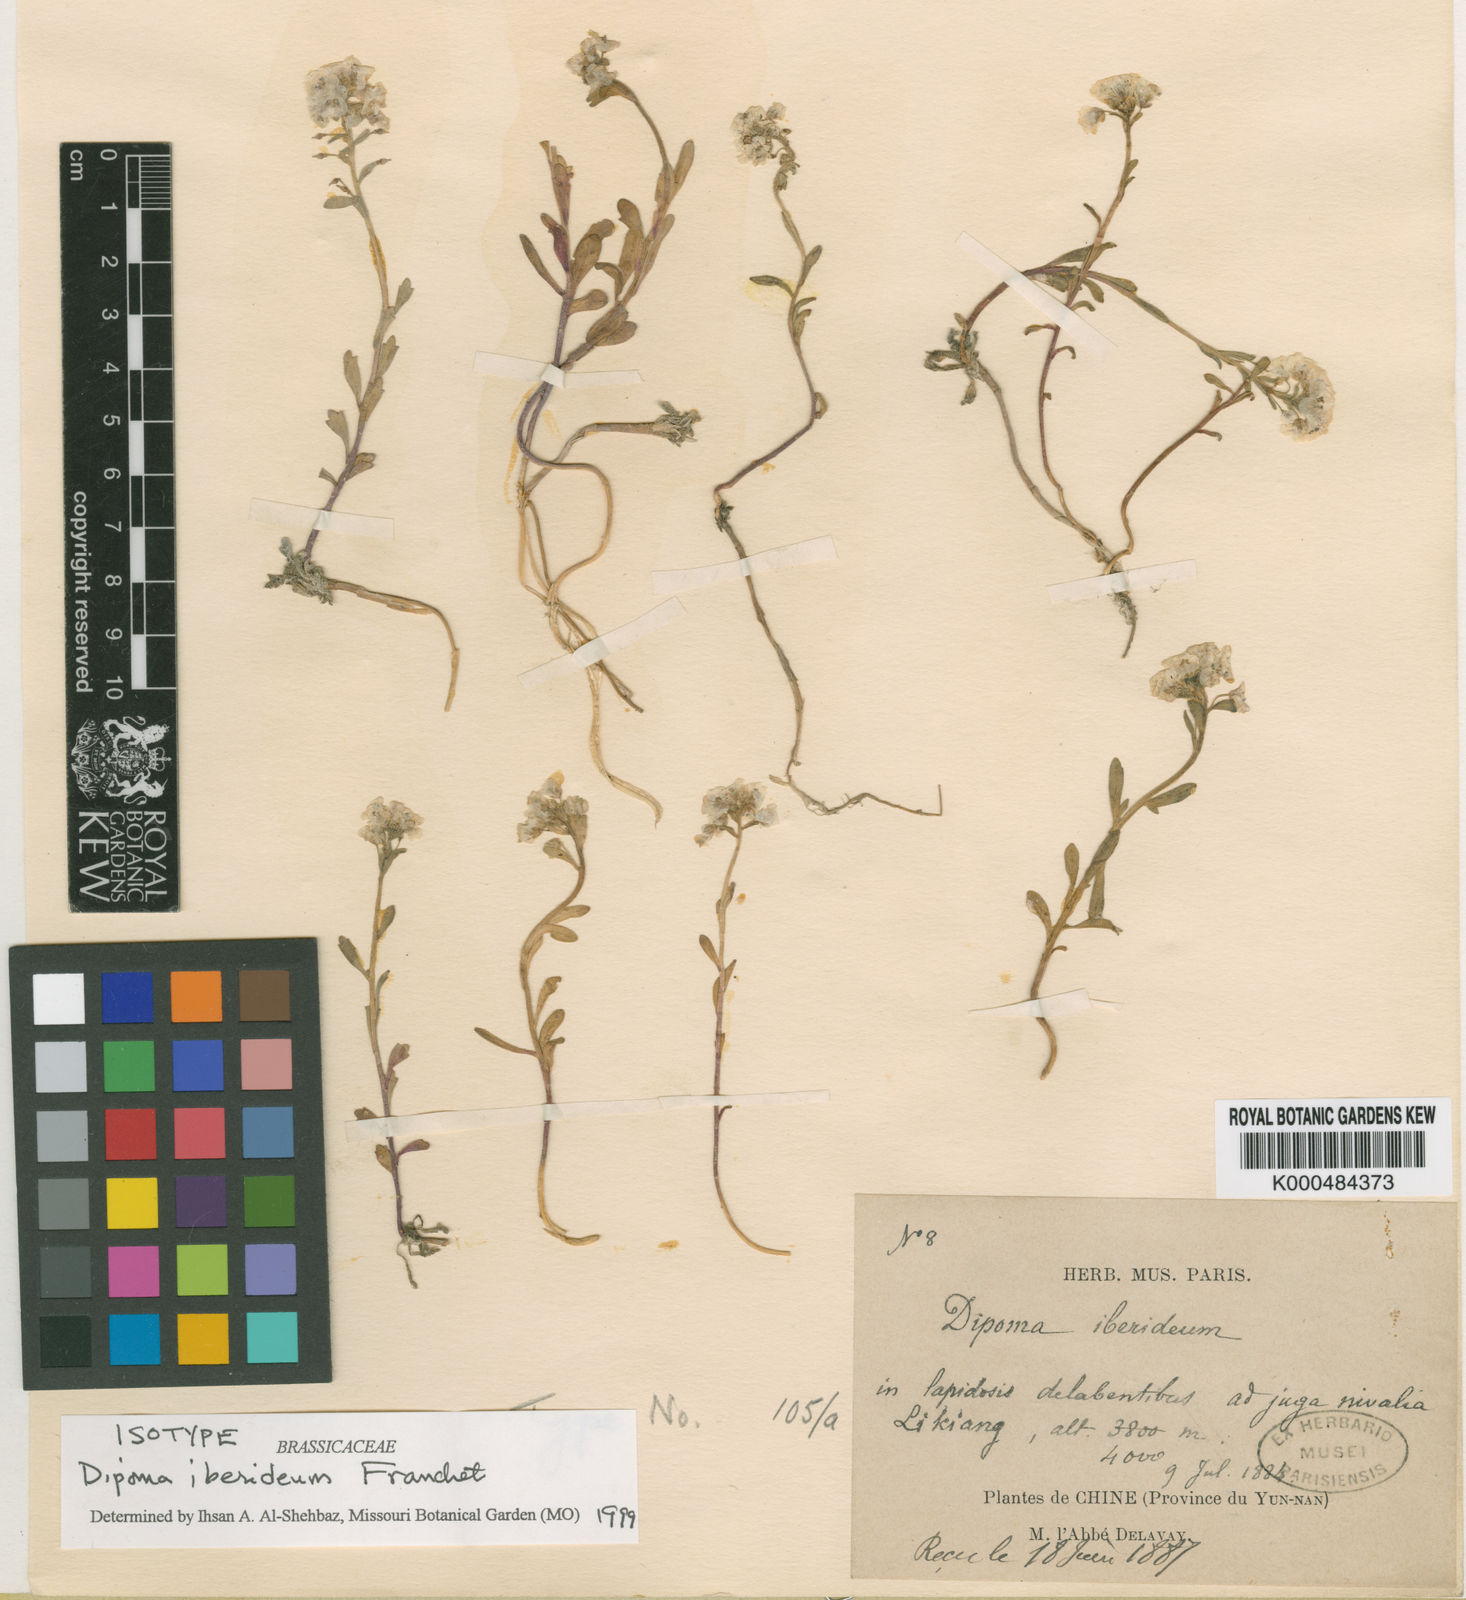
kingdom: Plantae
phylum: Tracheophyta
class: Magnoliopsida
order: Brassicales
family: Brassicaceae
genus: Dipoma
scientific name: Dipoma iberideum
